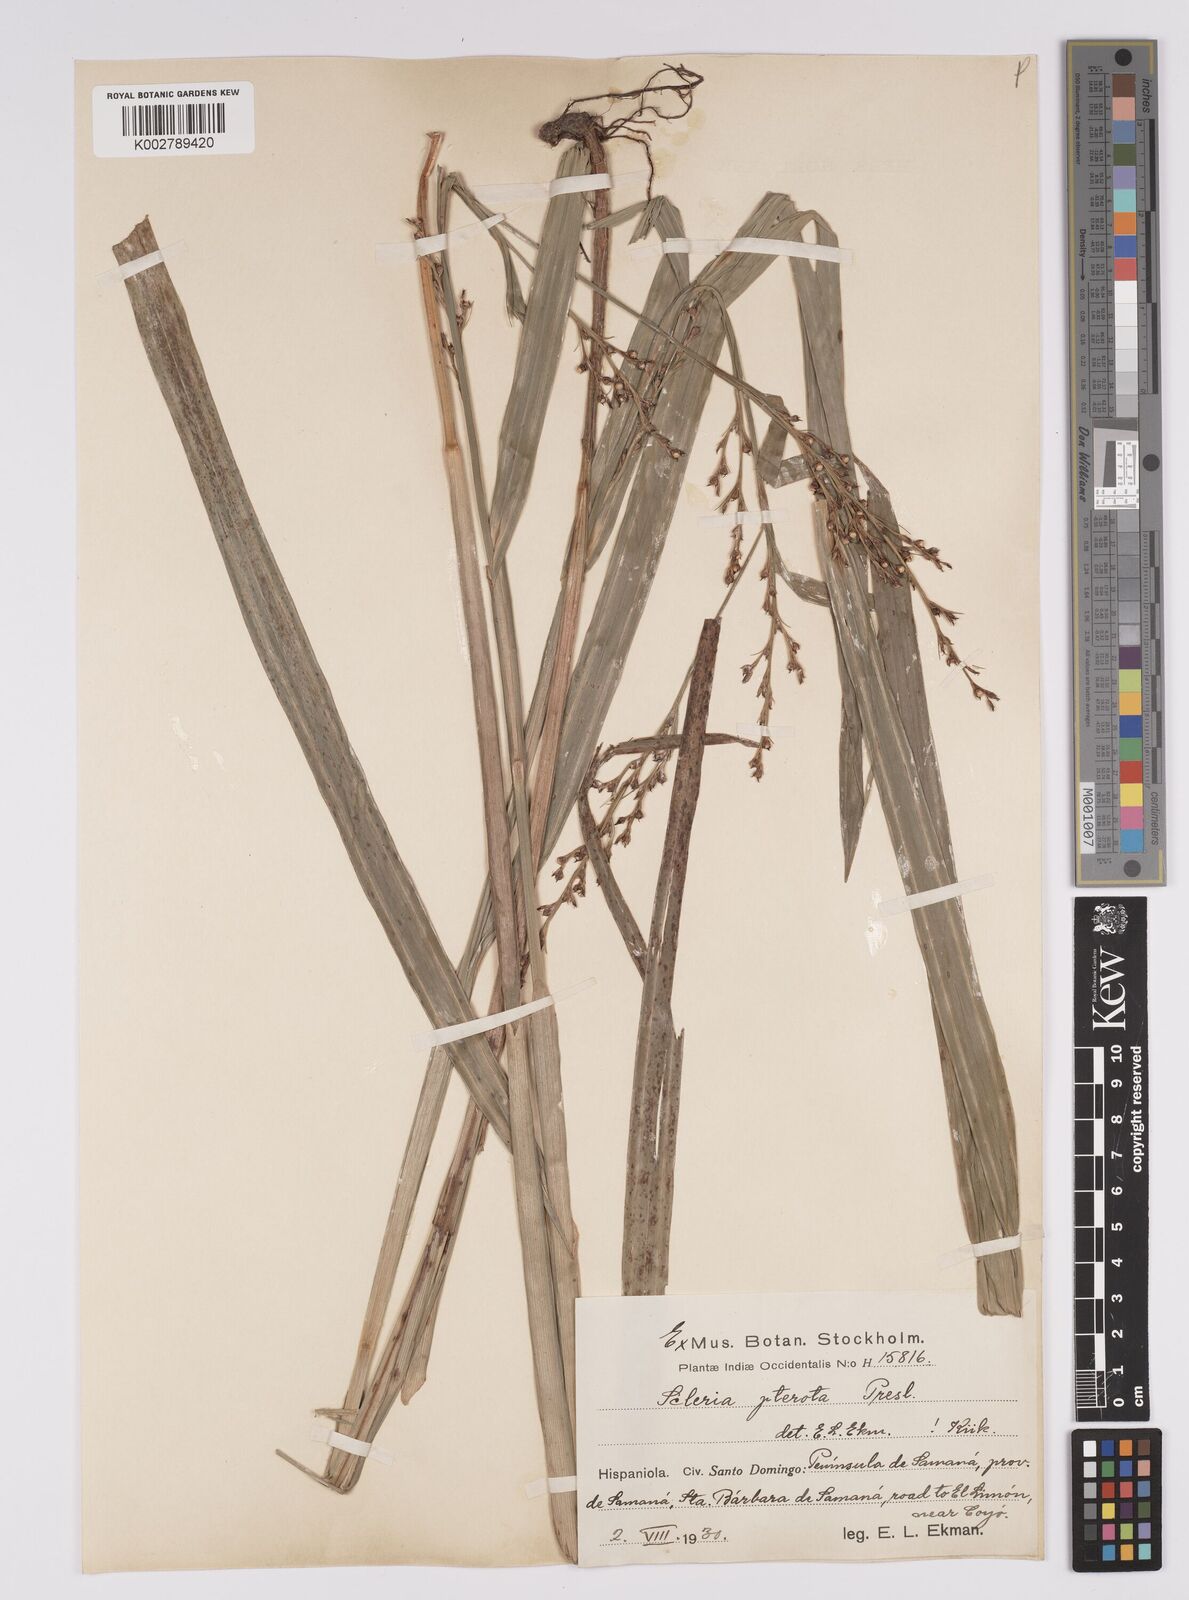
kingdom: Plantae
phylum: Tracheophyta
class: Liliopsida
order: Poales
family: Cyperaceae
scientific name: Cyperaceae
